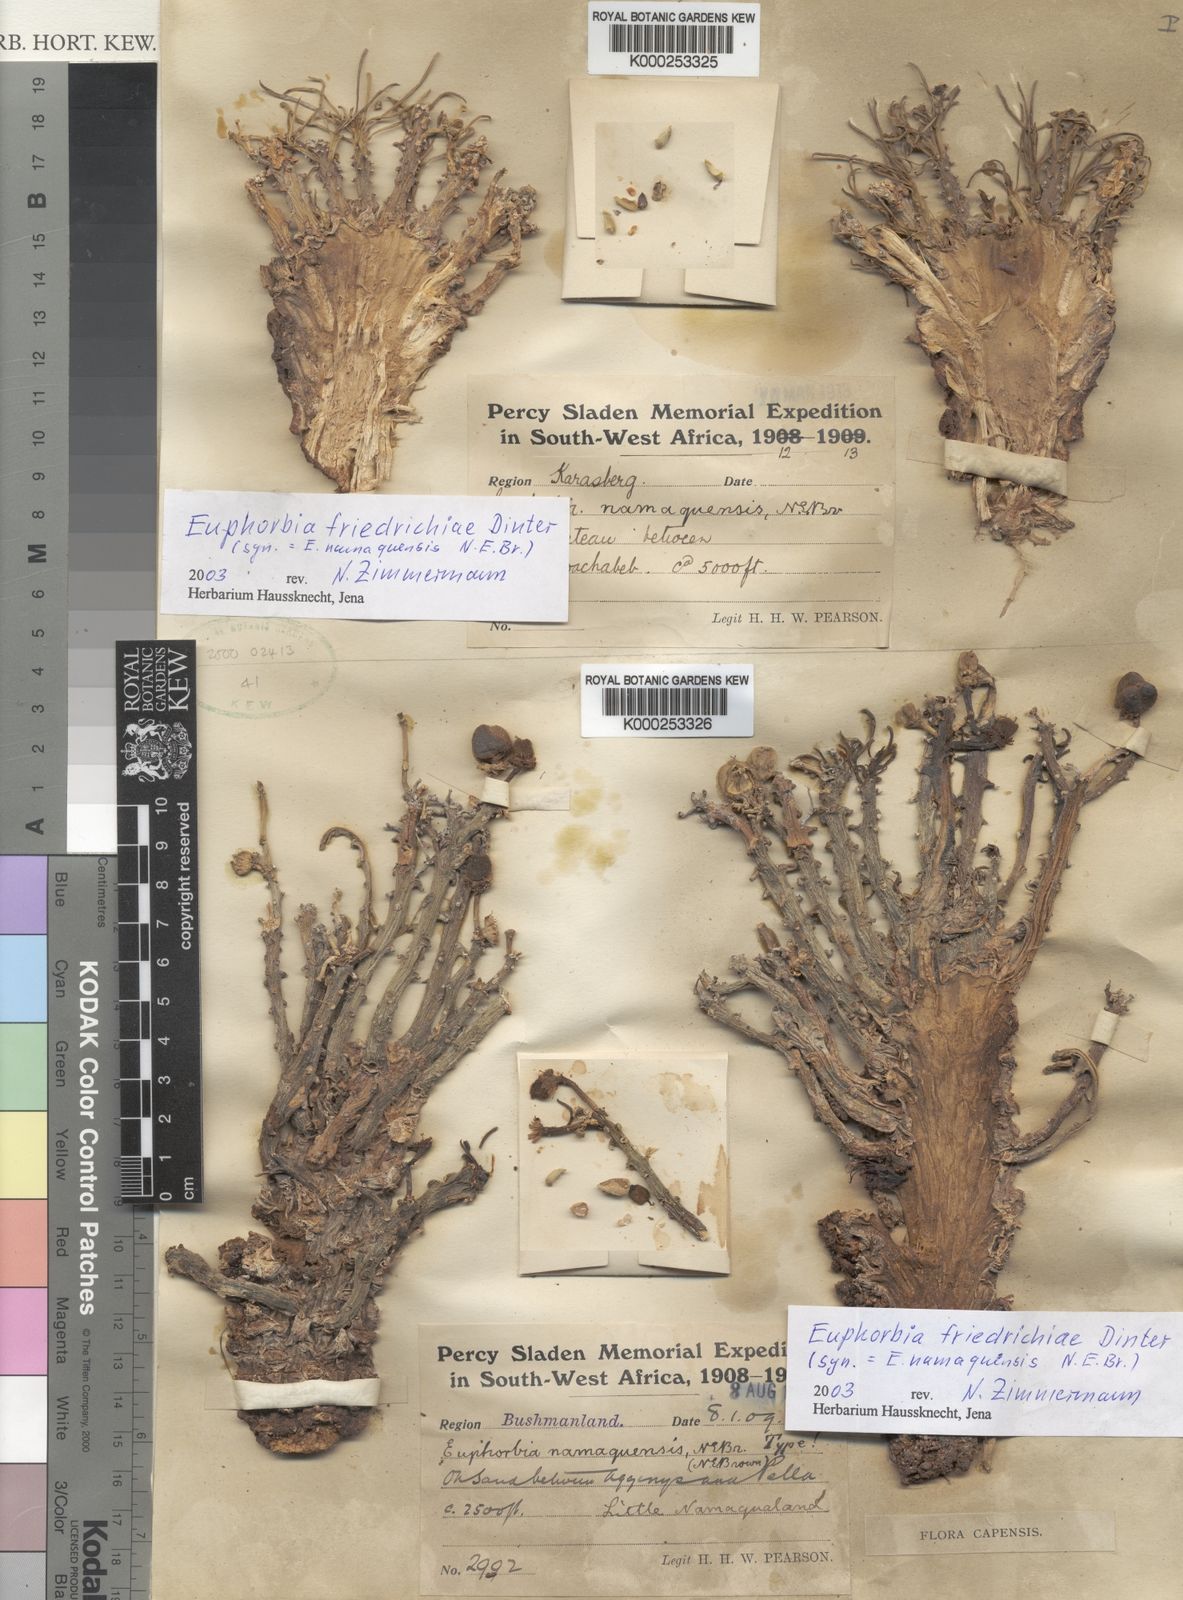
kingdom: Plantae
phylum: Tracheophyta
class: Magnoliopsida
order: Malpighiales
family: Euphorbiaceae
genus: Euphorbia
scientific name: Euphorbia namaquensis
